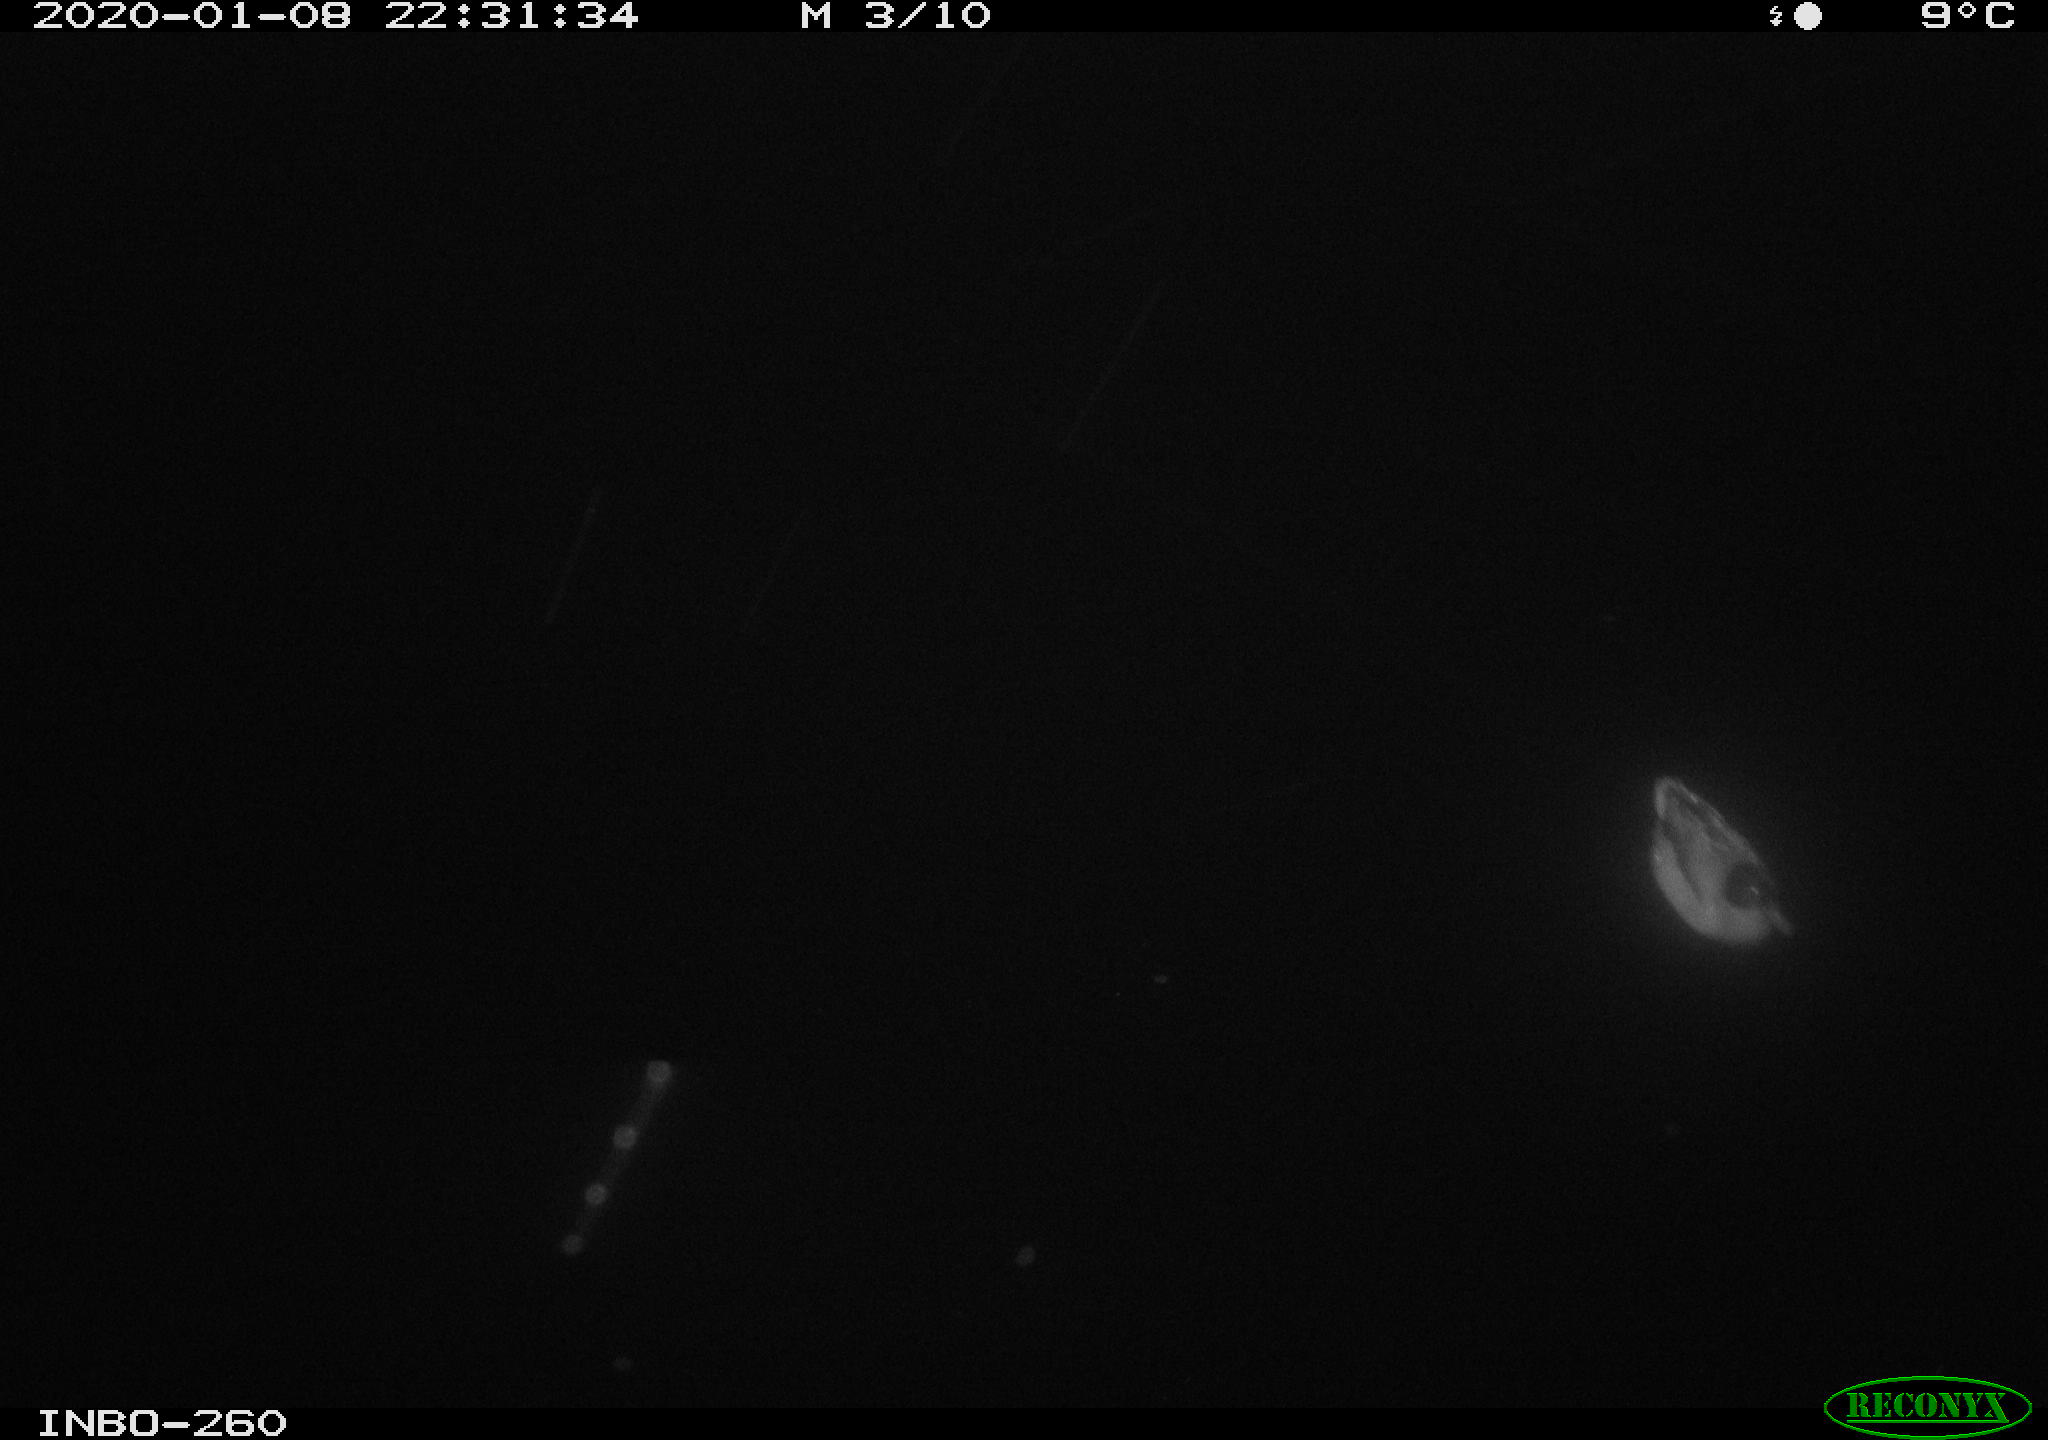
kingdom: Animalia
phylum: Chordata
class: Aves
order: Anseriformes
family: Anatidae
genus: Anas
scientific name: Anas platyrhynchos
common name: Mallard
